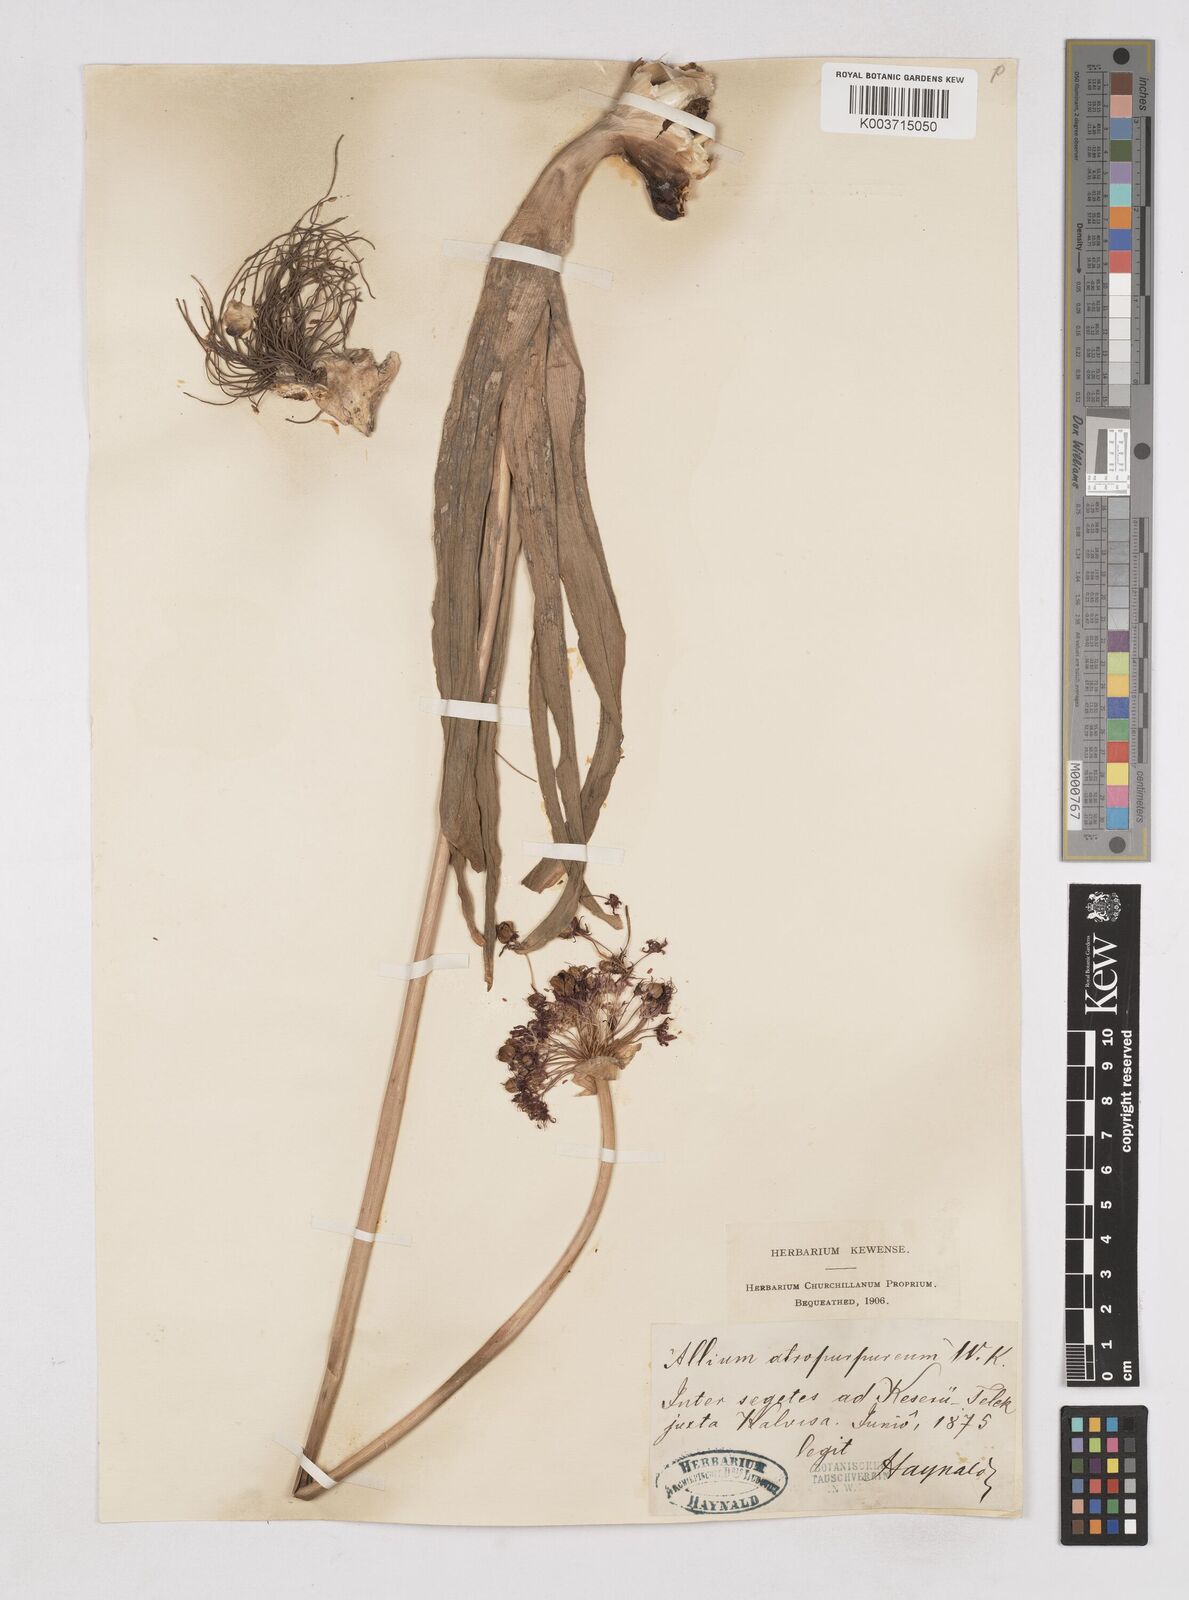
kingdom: Plantae
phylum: Tracheophyta
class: Liliopsida
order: Asparagales
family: Amaryllidaceae
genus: Allium
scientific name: Allium atropurpureum
